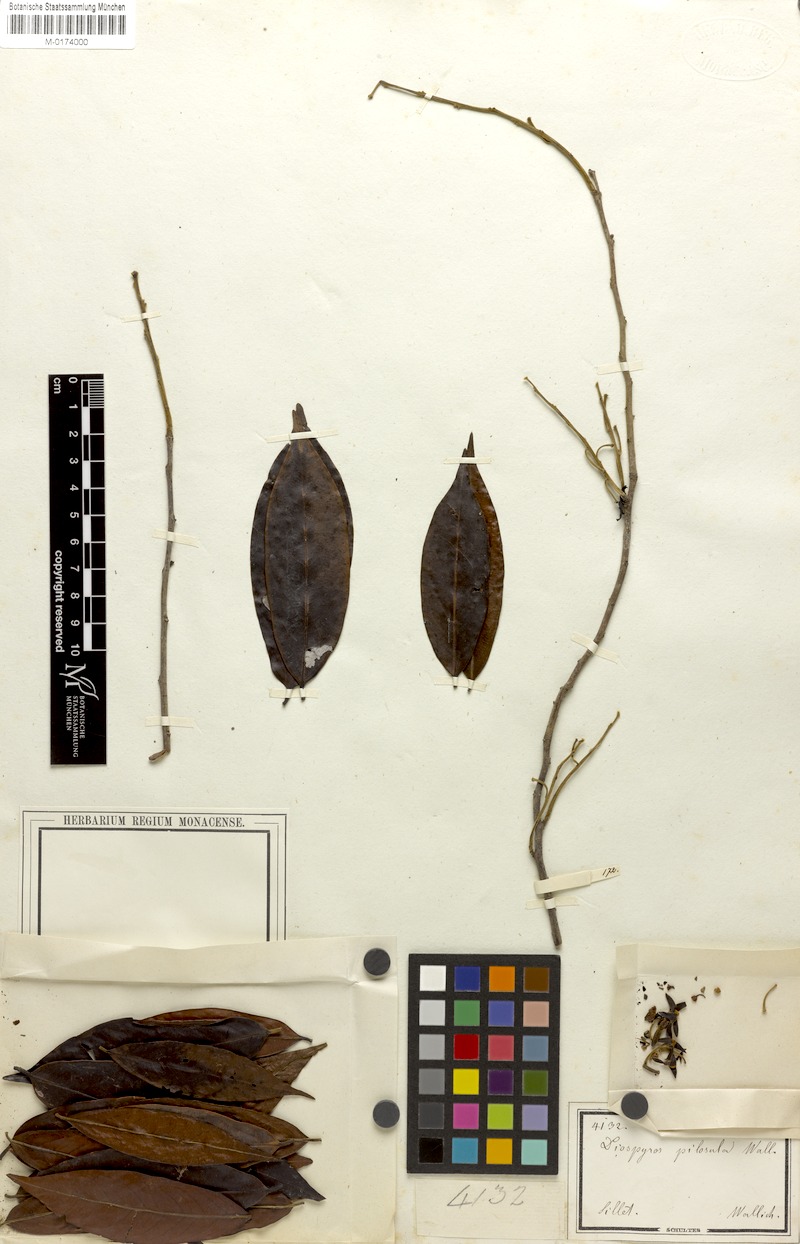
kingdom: Plantae
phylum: Tracheophyta
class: Magnoliopsida
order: Ericales
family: Ebenaceae
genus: Diospyros
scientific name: Diospyros pilosiuscula
